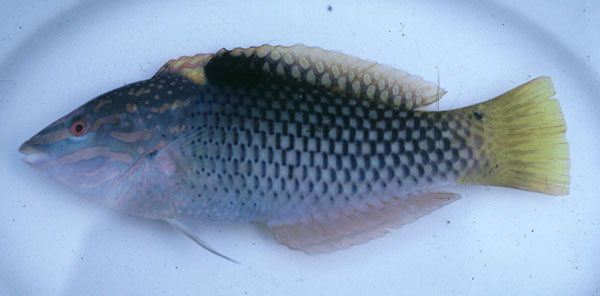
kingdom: Animalia
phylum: Chordata
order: Perciformes
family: Labridae
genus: Halichoeres
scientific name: Halichoeres hortulanus
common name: Checkerboard wrasse
